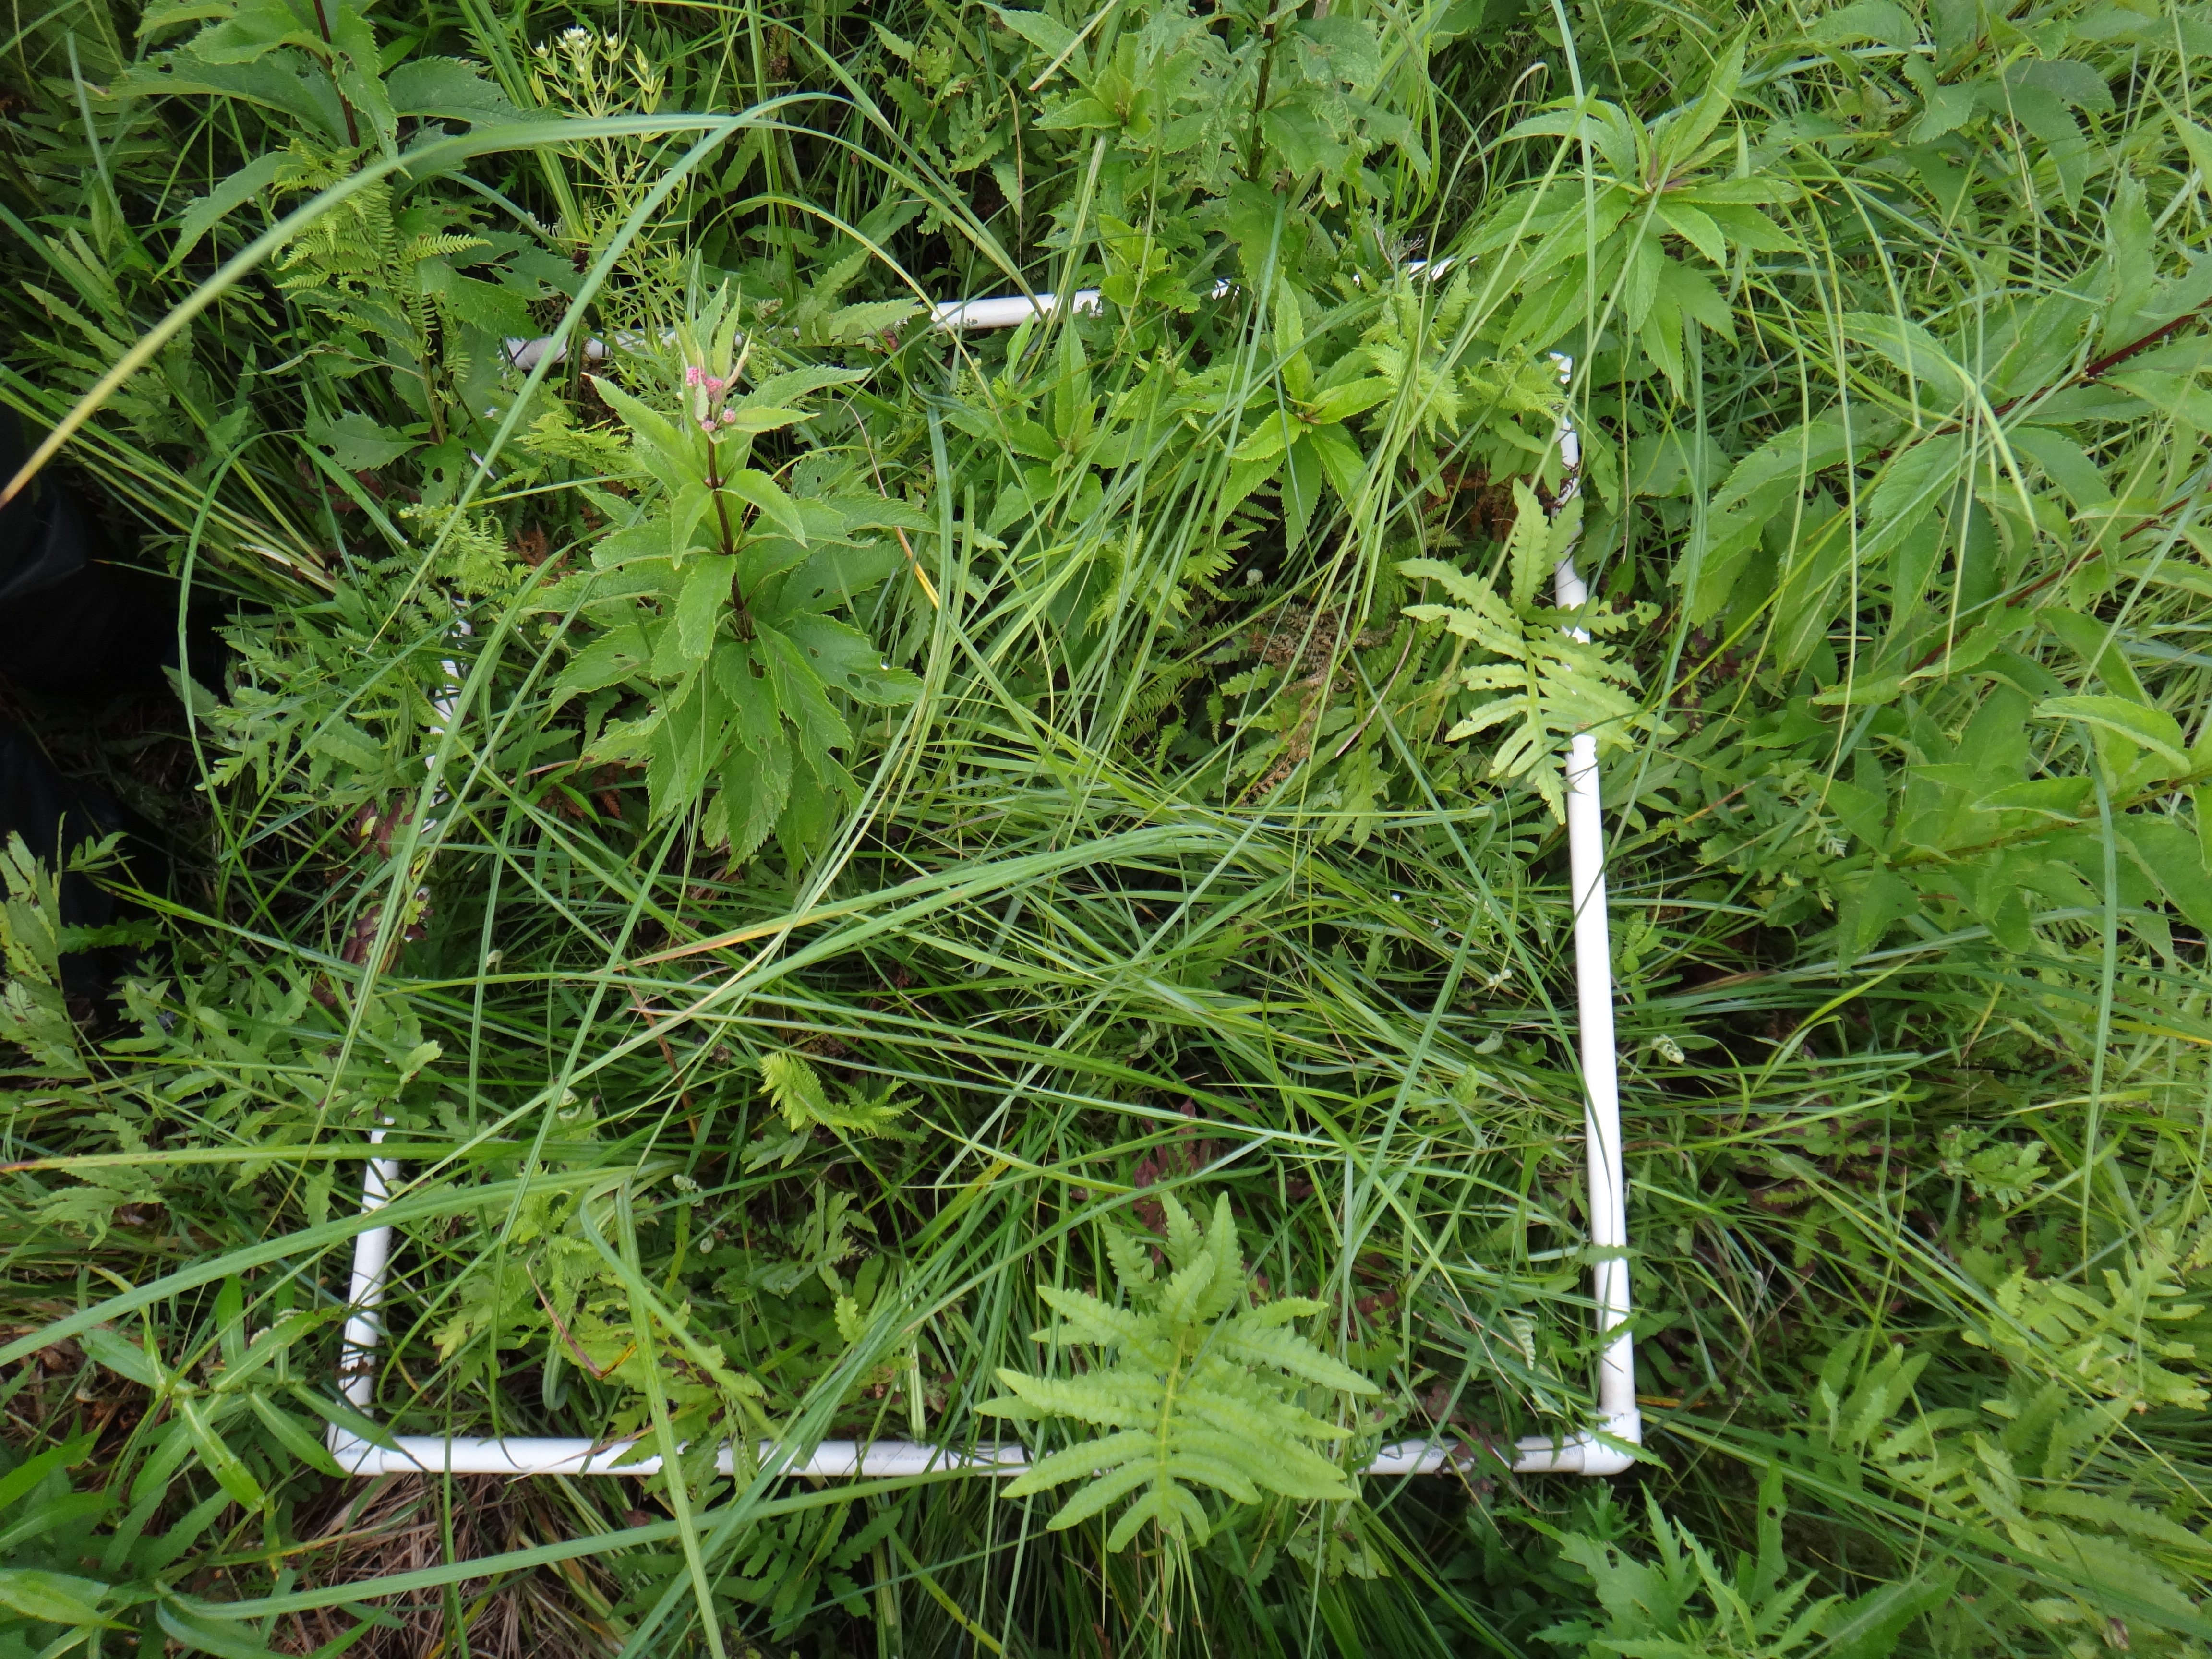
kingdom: Plantae
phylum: Tracheophyta
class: Liliopsida
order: Poales
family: Cyperaceae
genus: Carex
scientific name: Carex stricta
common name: Hummock sedge
